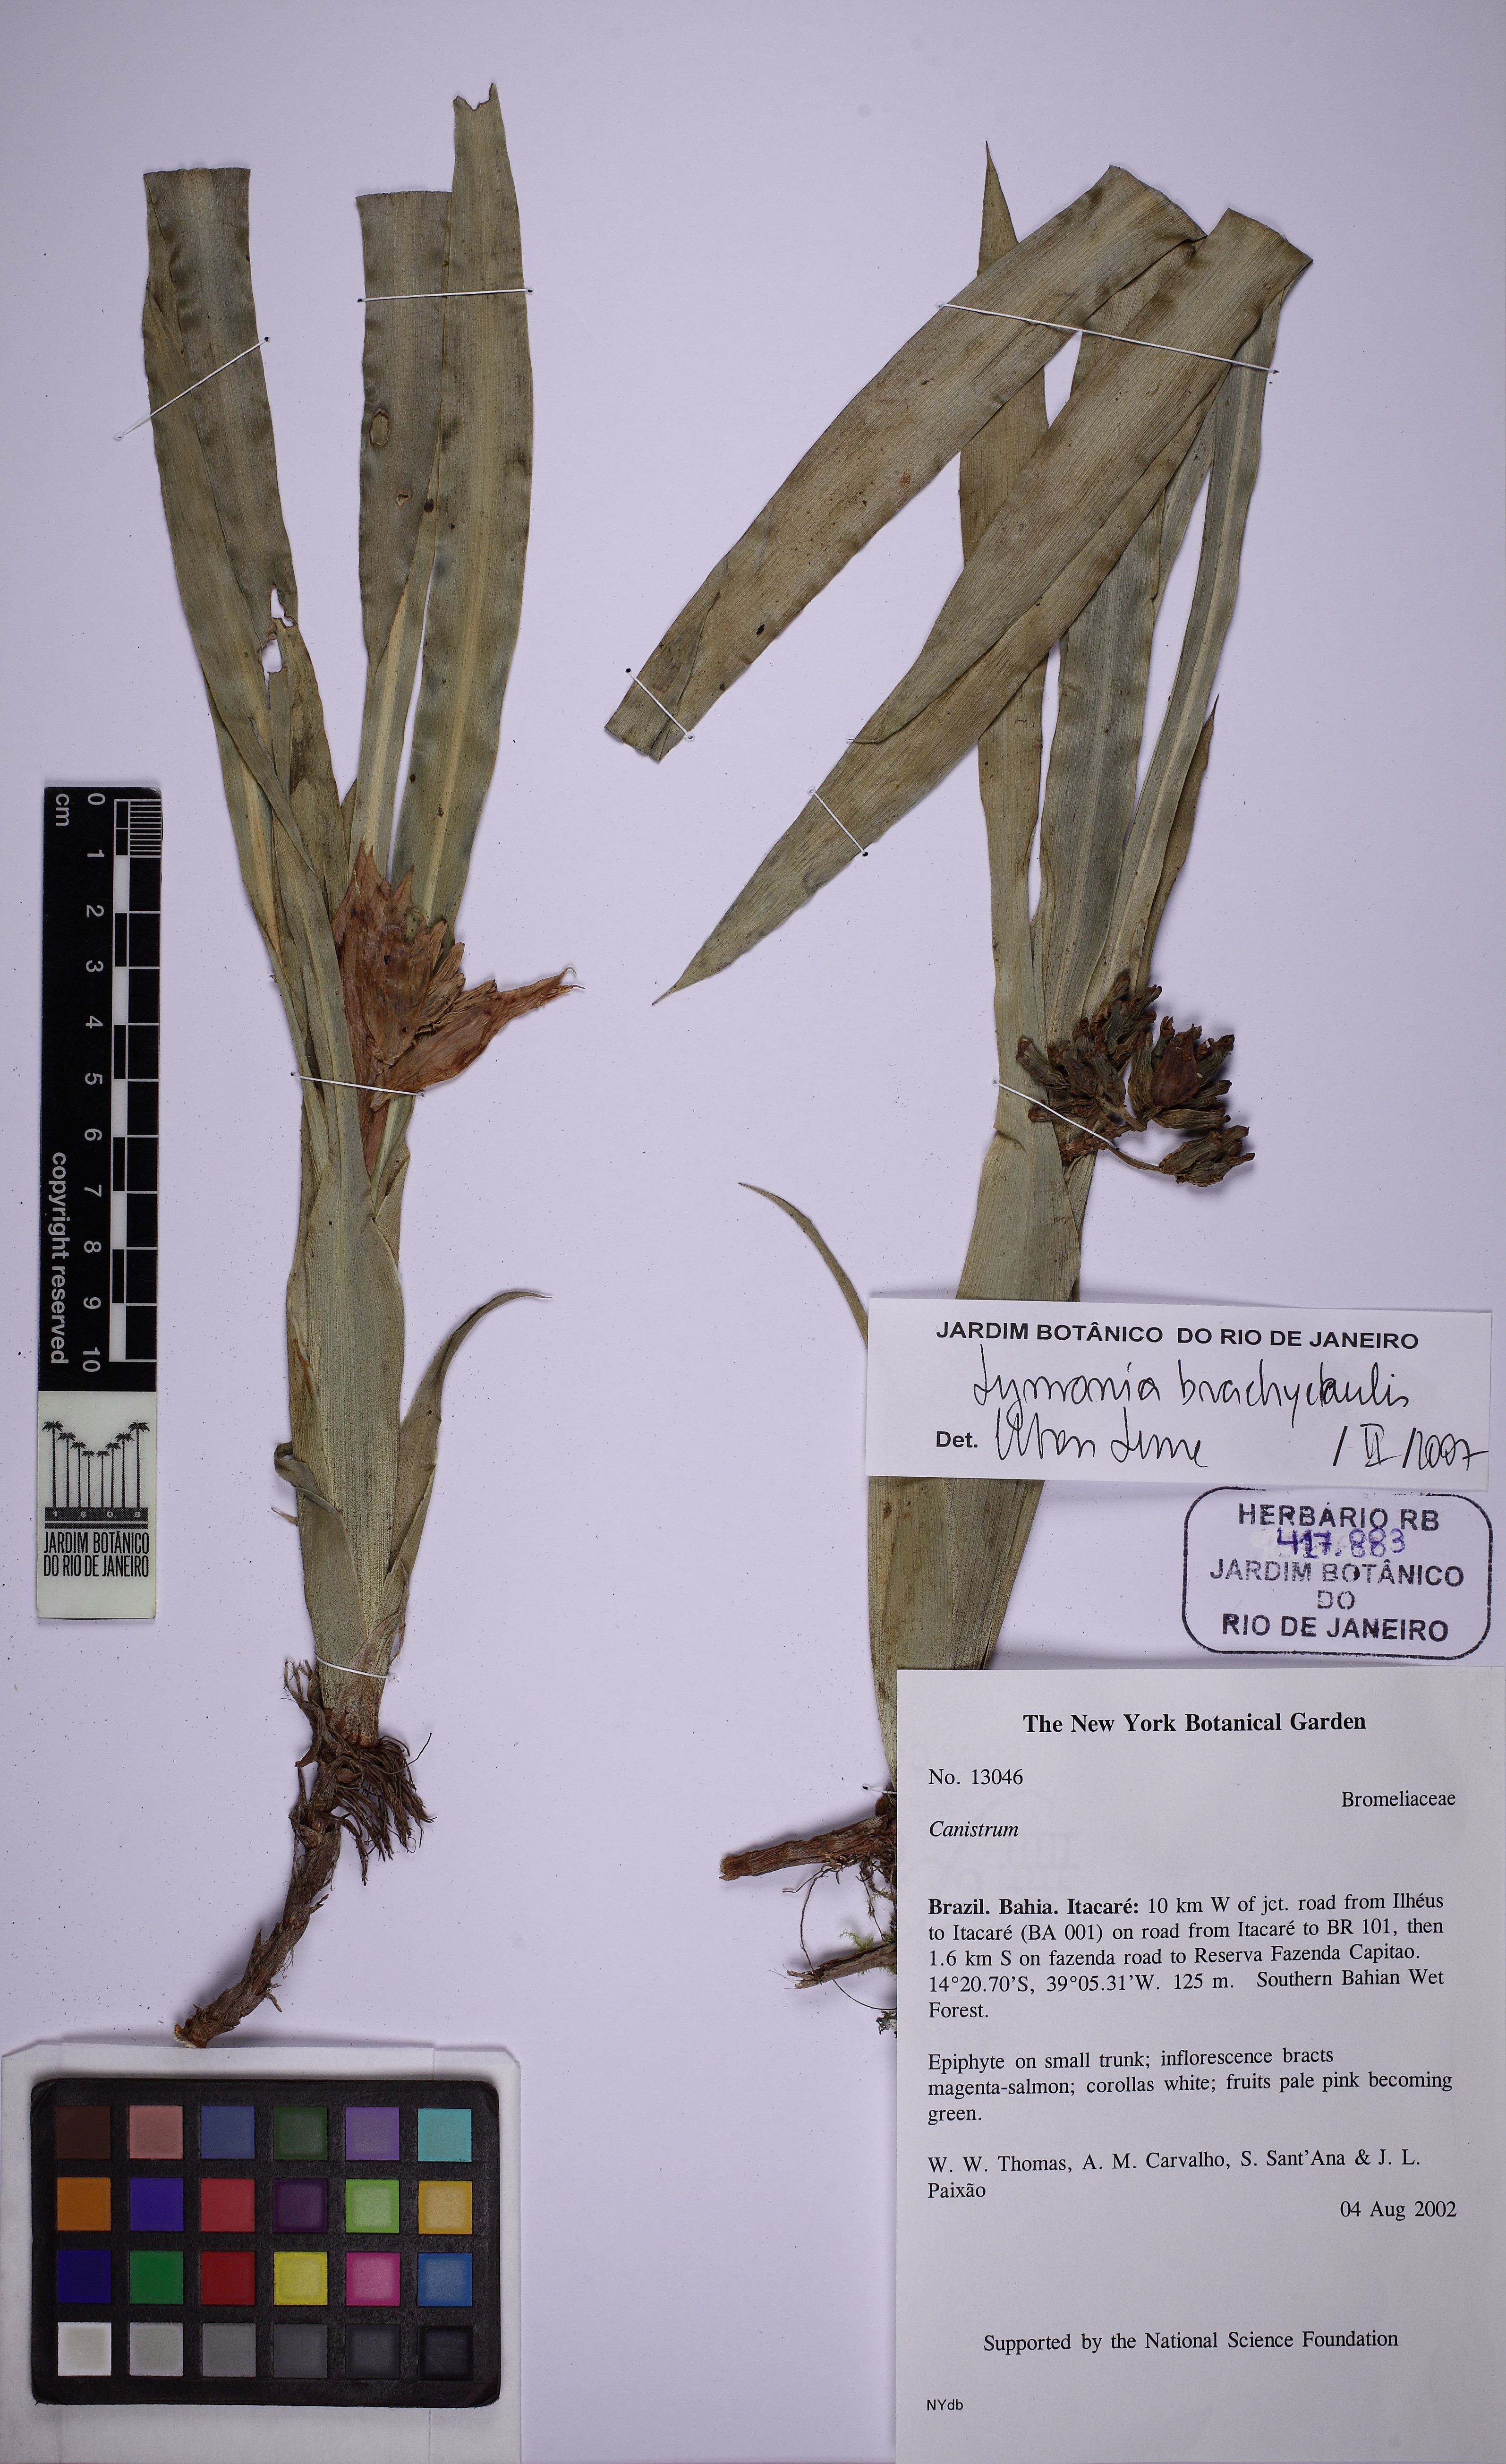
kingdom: Plantae
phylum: Tracheophyta
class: Liliopsida
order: Poales
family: Bromeliaceae
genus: Lymania
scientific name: Lymania corallina
